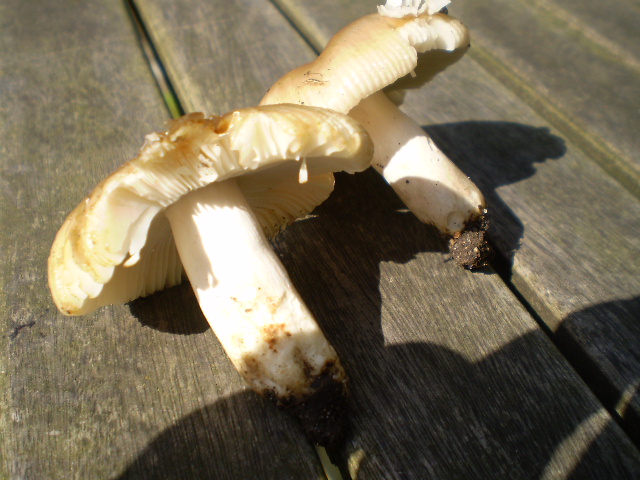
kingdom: Fungi
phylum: Basidiomycota
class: Agaricomycetes
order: Russulales
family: Russulaceae
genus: Russula
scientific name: Russula recondita
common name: mild kam-skørhat
